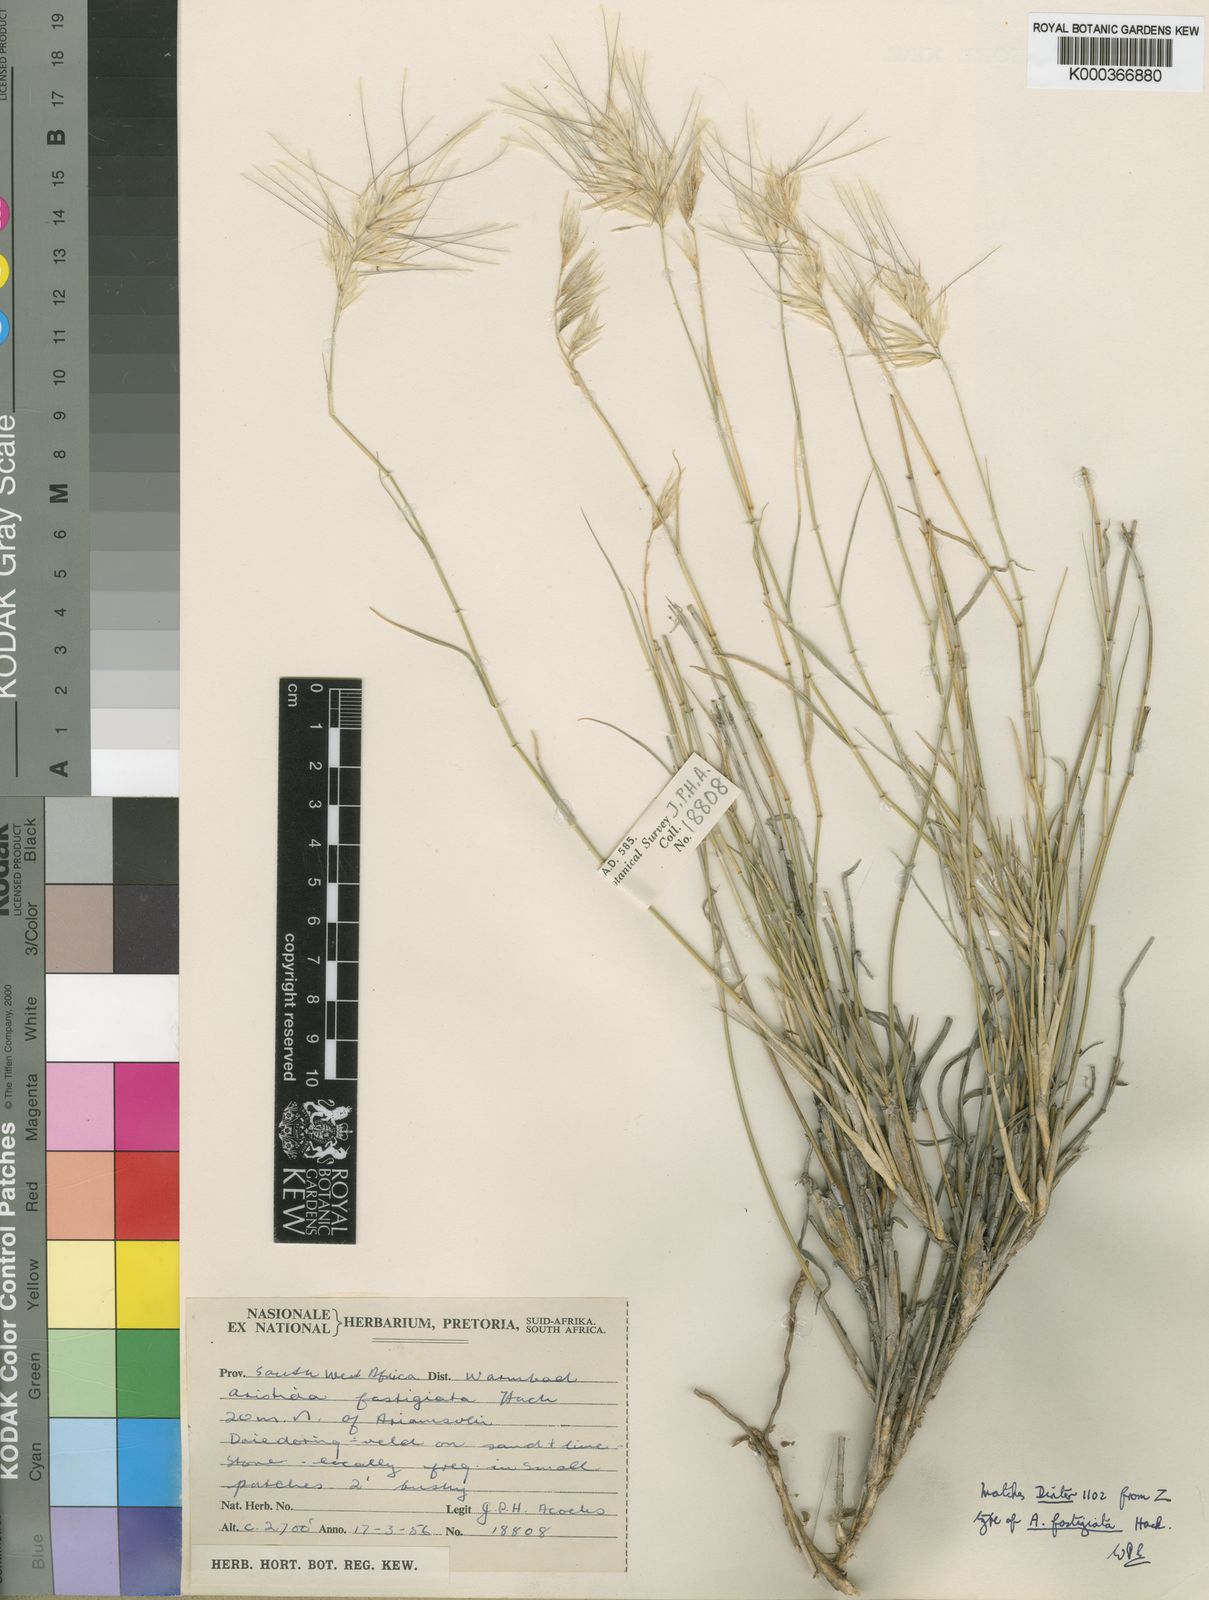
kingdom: Plantae
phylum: Tracheophyta
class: Liliopsida
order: Poales
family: Poaceae
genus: Stipagrostis
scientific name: Stipagrostis fastigiata
